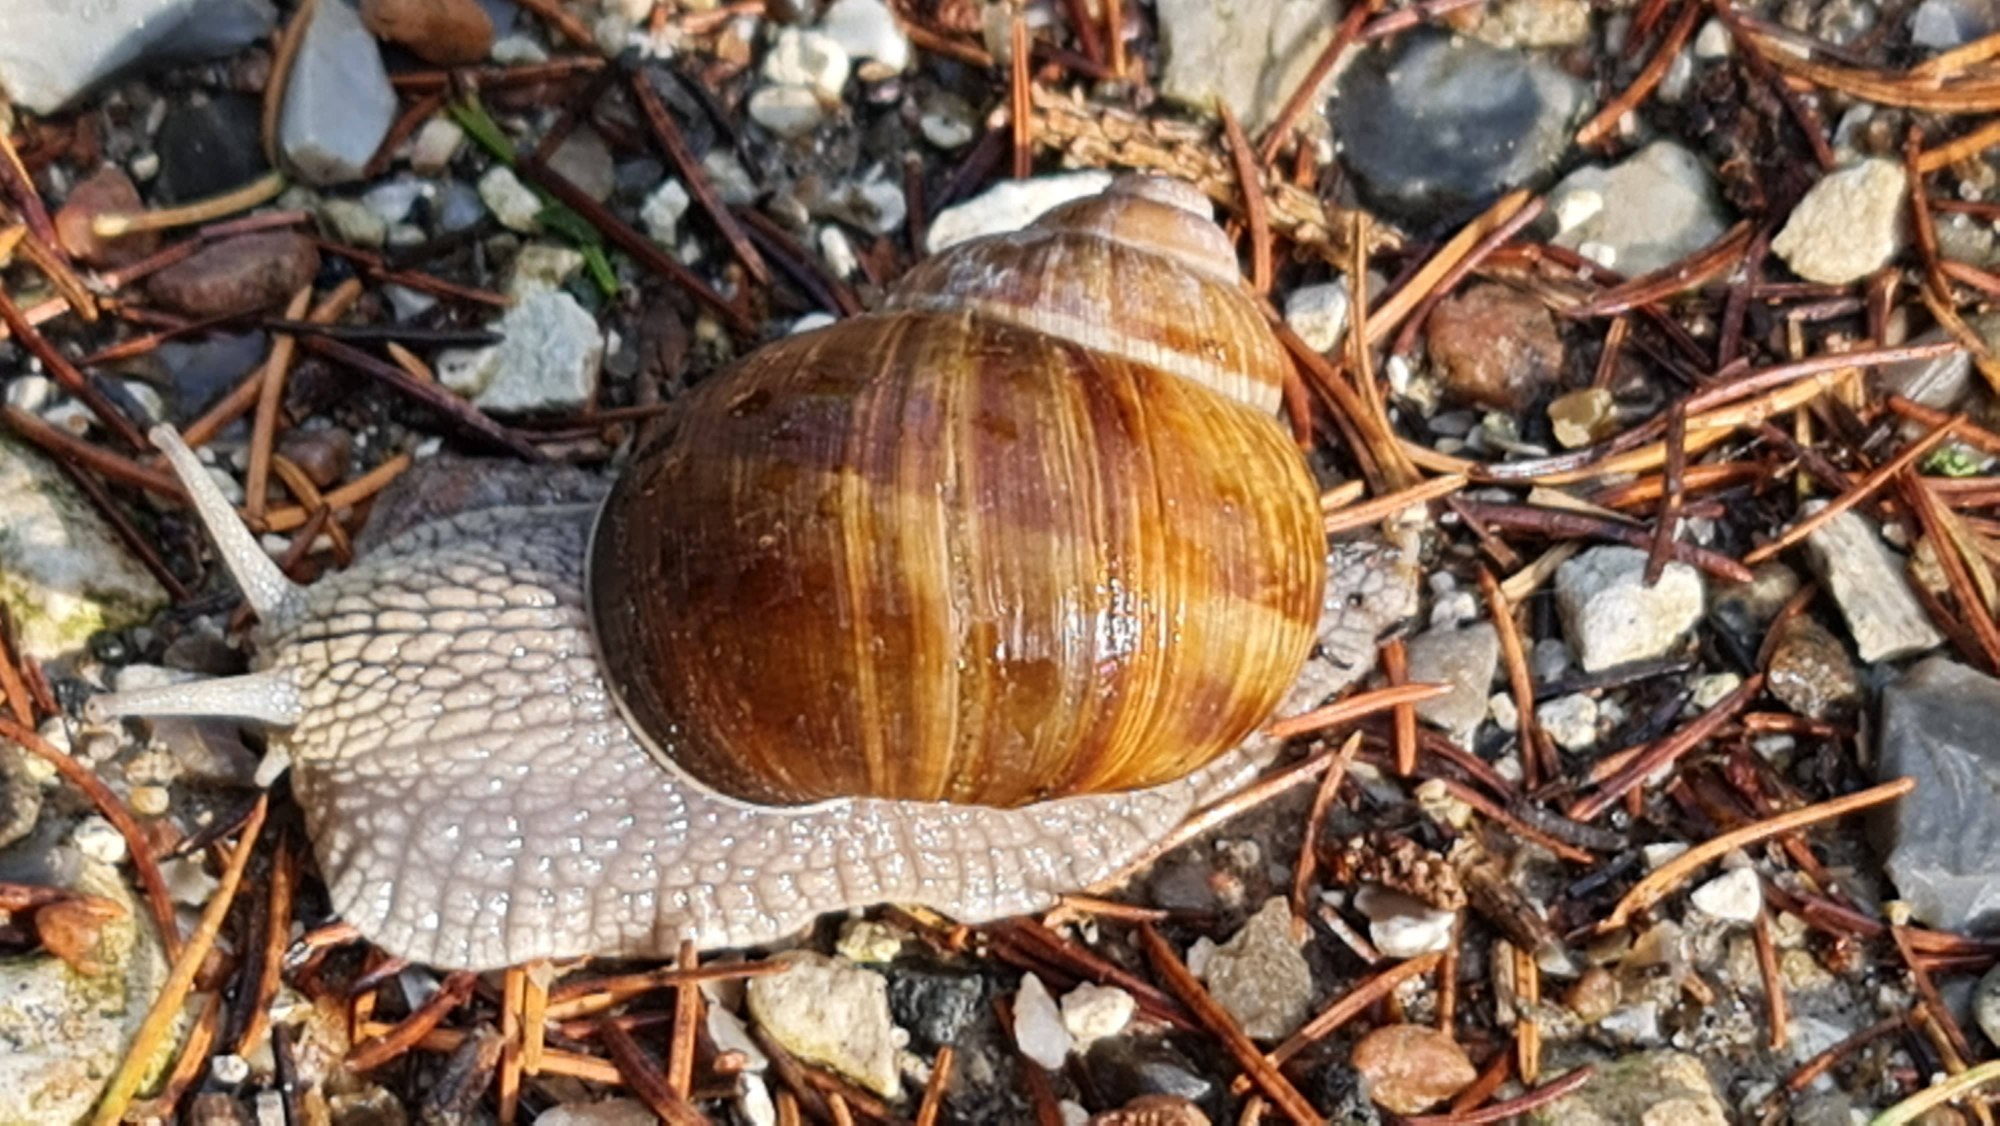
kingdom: Animalia
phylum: Mollusca
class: Gastropoda
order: Stylommatophora
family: Helicidae
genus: Helix
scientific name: Helix pomatia
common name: Vinbjergsnegl
